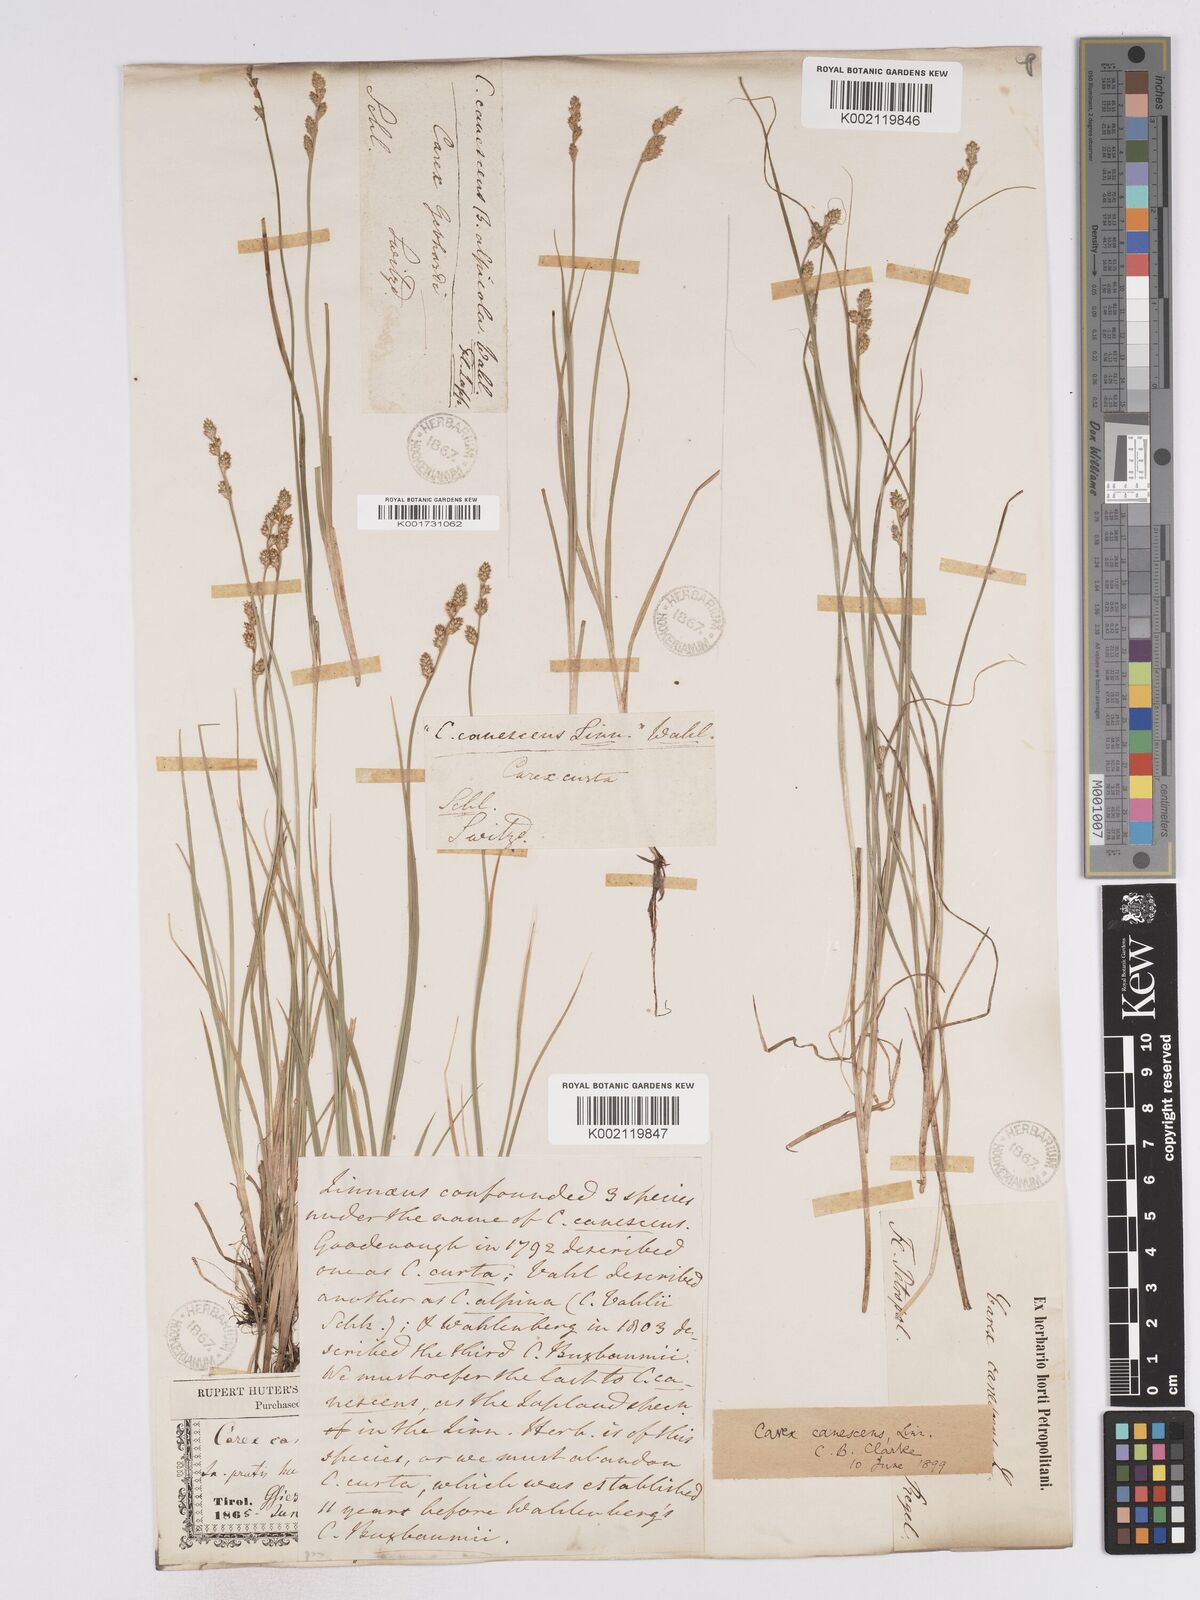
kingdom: Plantae
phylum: Tracheophyta
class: Liliopsida
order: Poales
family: Cyperaceae
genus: Carex
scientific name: Carex curta
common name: White sedge
